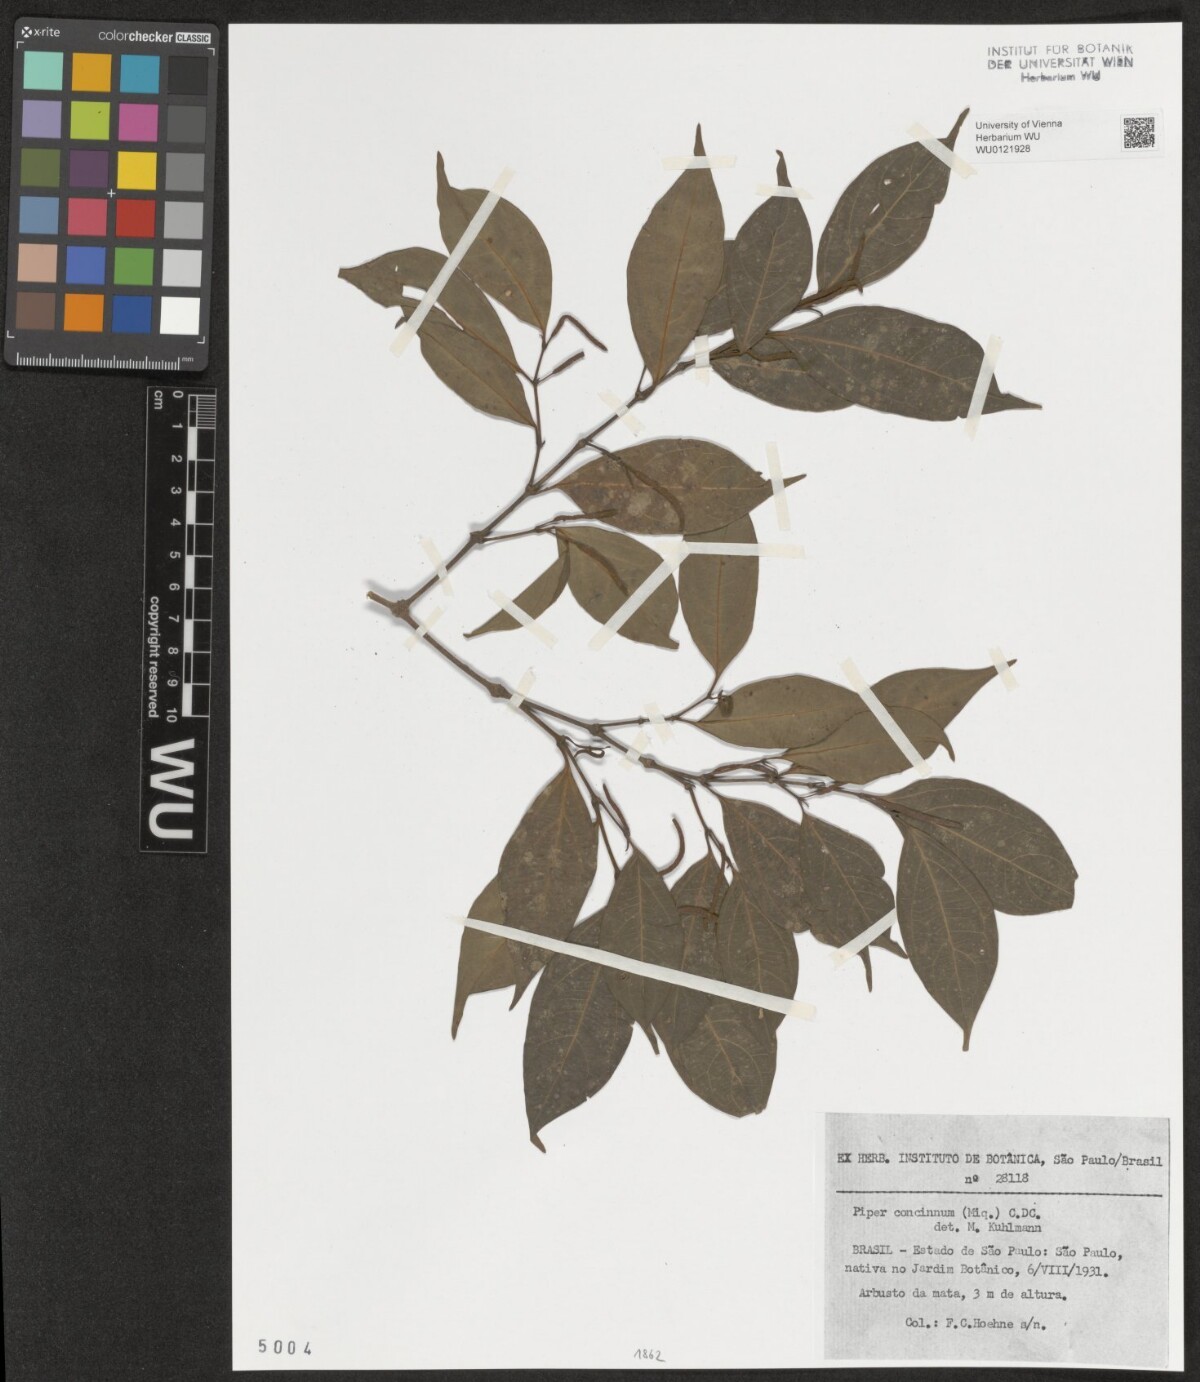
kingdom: Plantae
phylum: Tracheophyta
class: Magnoliopsida
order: Piperales
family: Piperaceae
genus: Peperomia
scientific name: Peperomia pellucida
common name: Man to man
